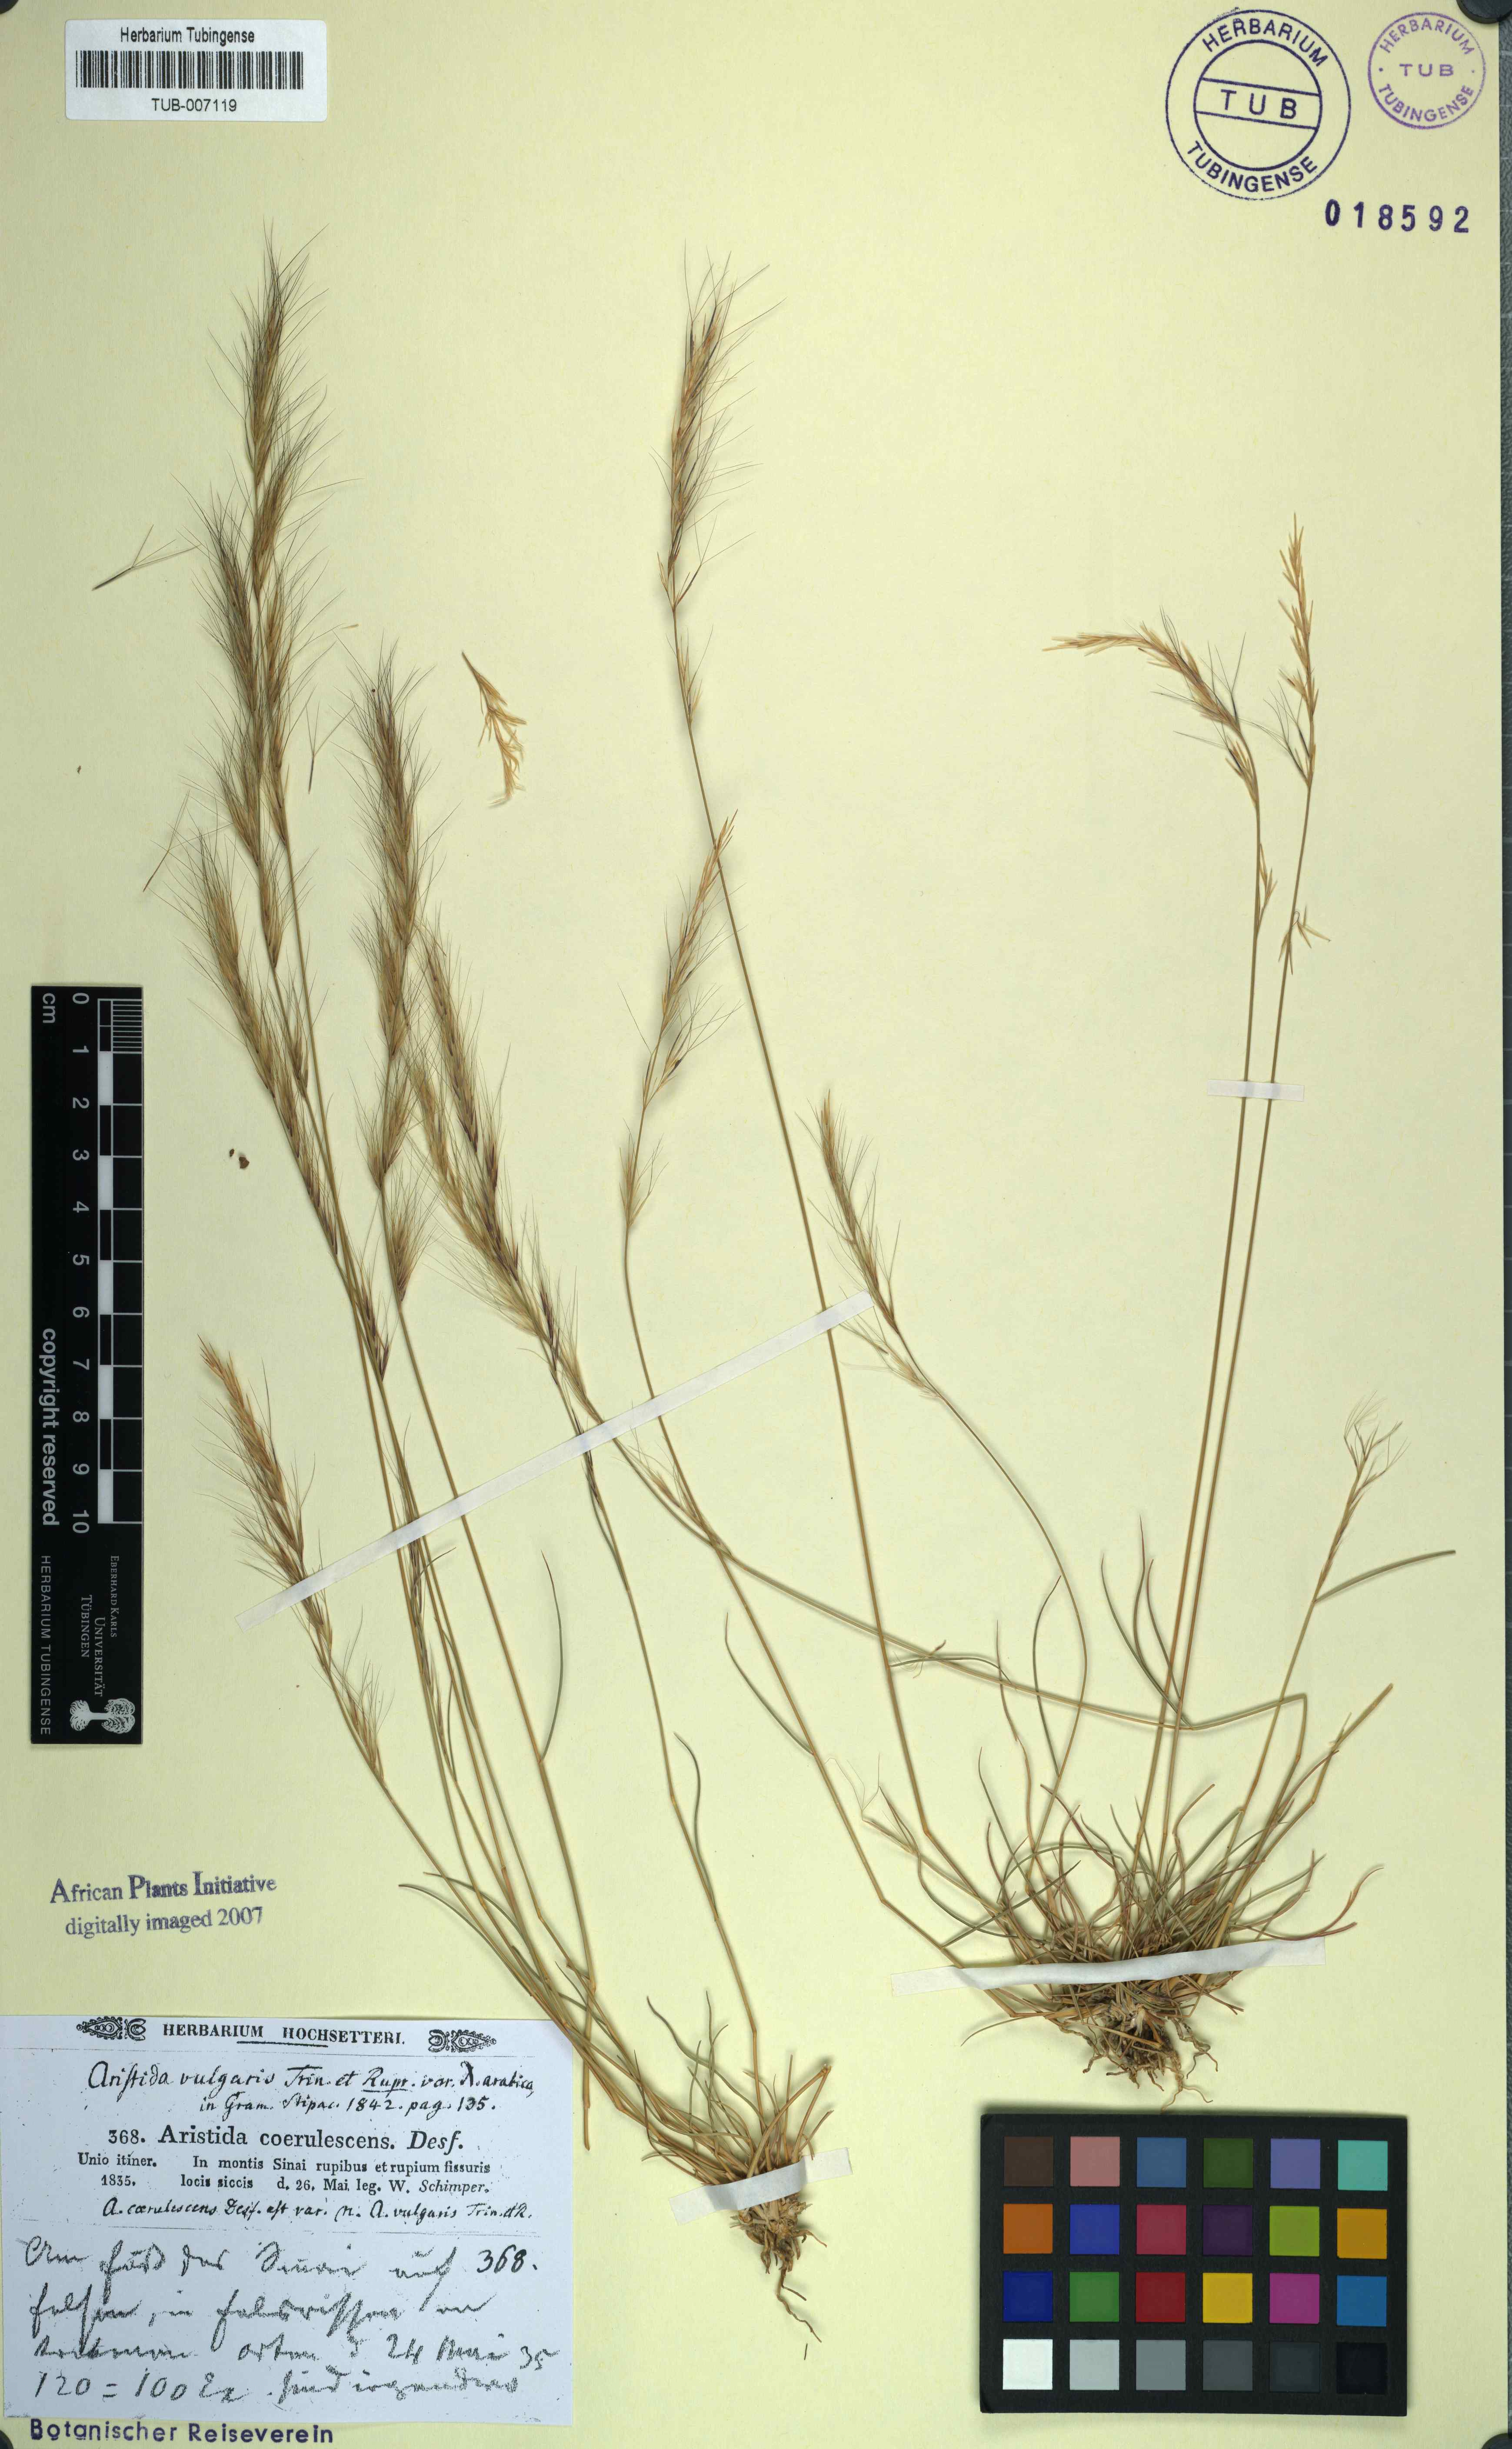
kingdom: Plantae
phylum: Tracheophyta
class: Liliopsida
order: Poales
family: Poaceae
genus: Aristida
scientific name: Aristida adscensionis
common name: Sixweeks threeawn
